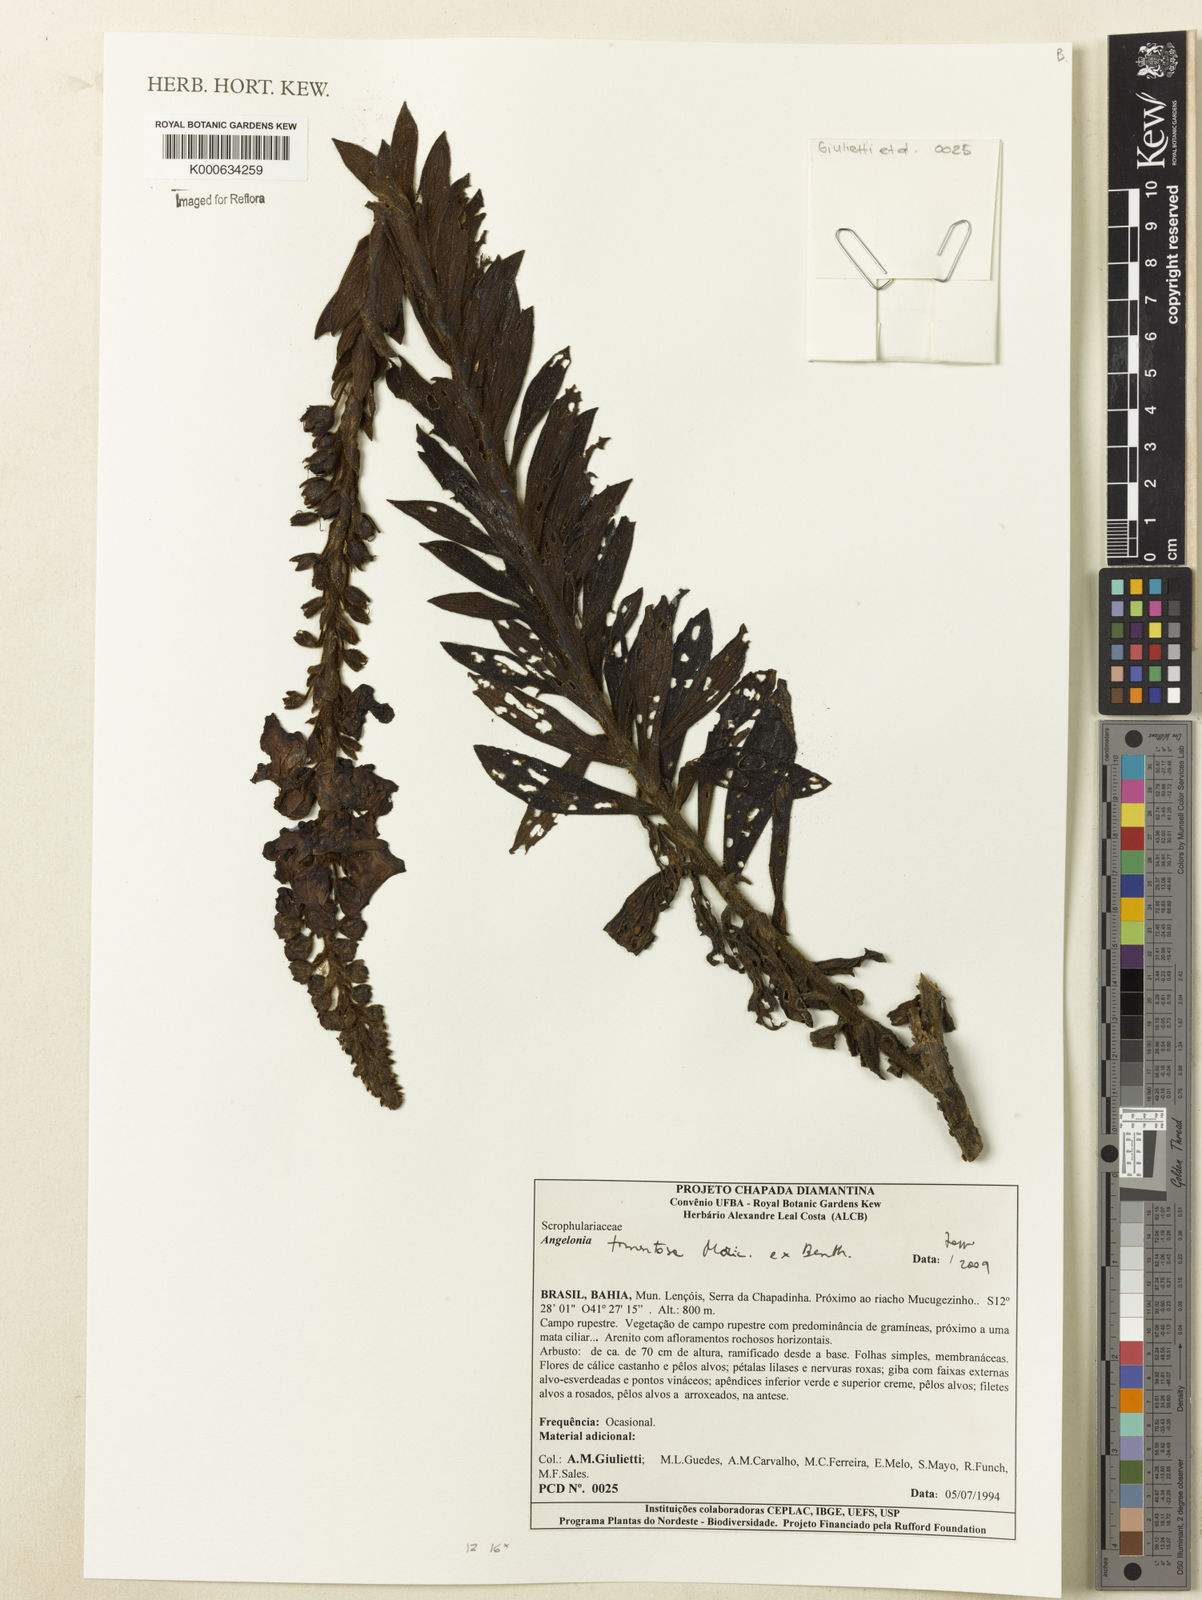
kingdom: Plantae
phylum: Tracheophyta
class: Magnoliopsida
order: Lamiales
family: Plantaginaceae
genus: Angelonia
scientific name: Angelonia tomentosa
